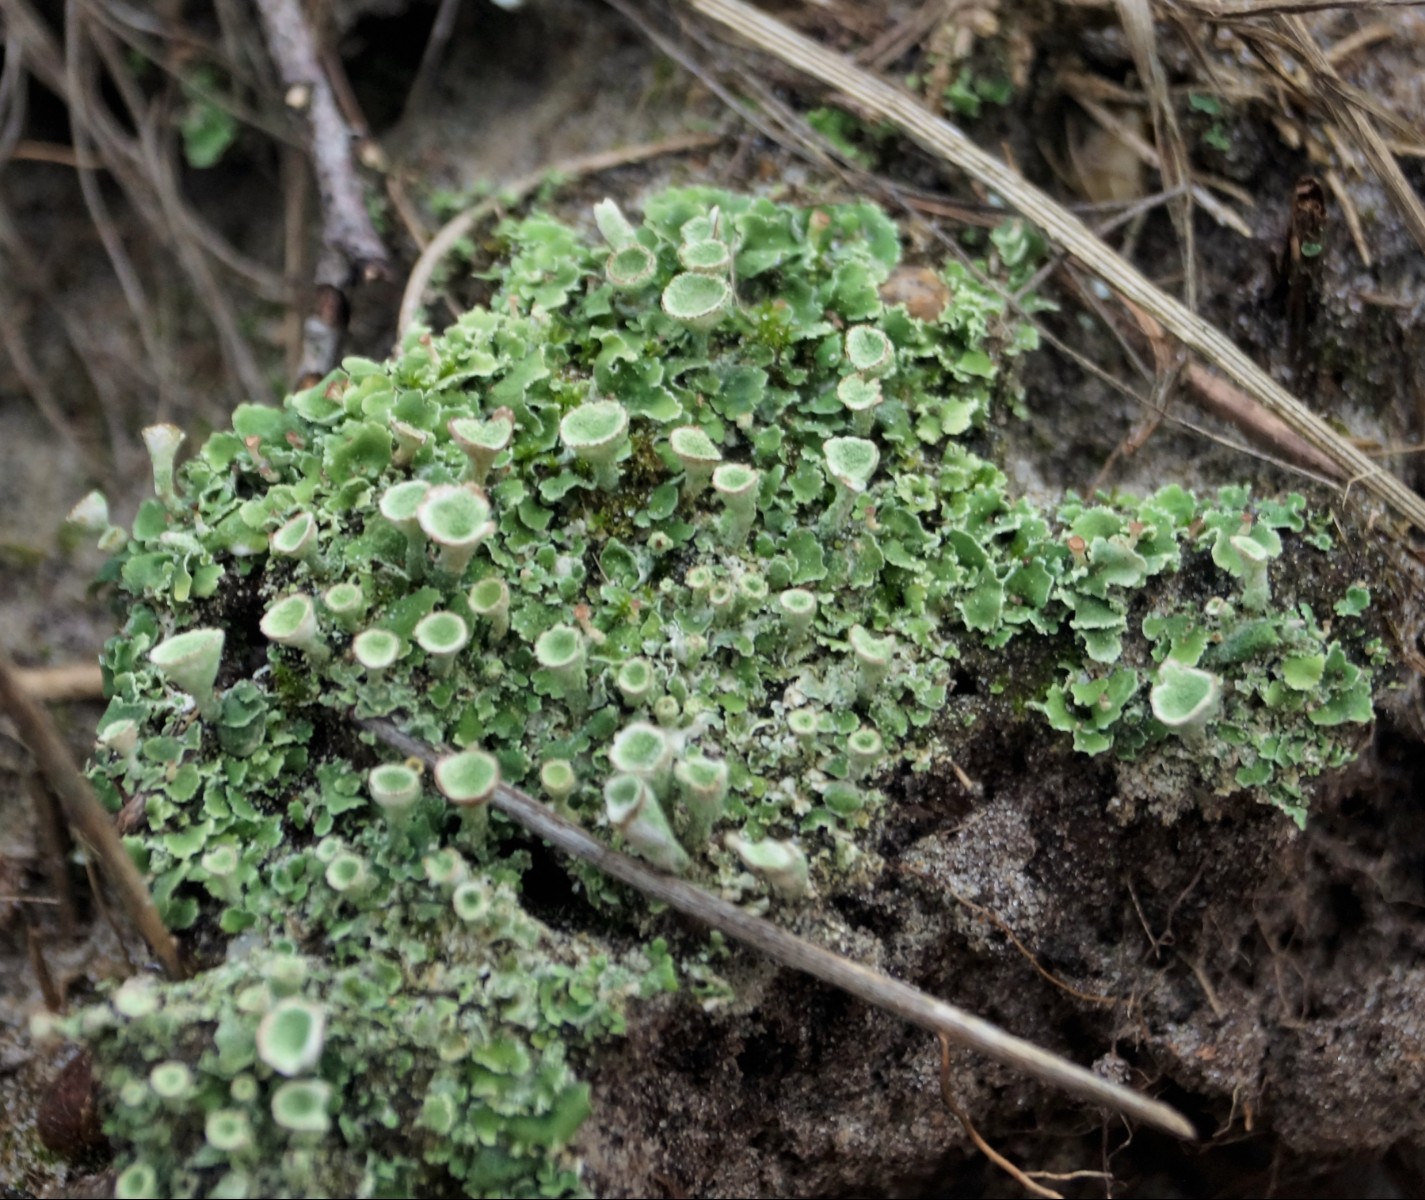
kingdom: Fungi
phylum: Ascomycota
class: Lecanoromycetes
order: Lecanorales
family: Cladoniaceae
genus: Cladonia
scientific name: Cladonia humilis
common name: lav bægerlav
